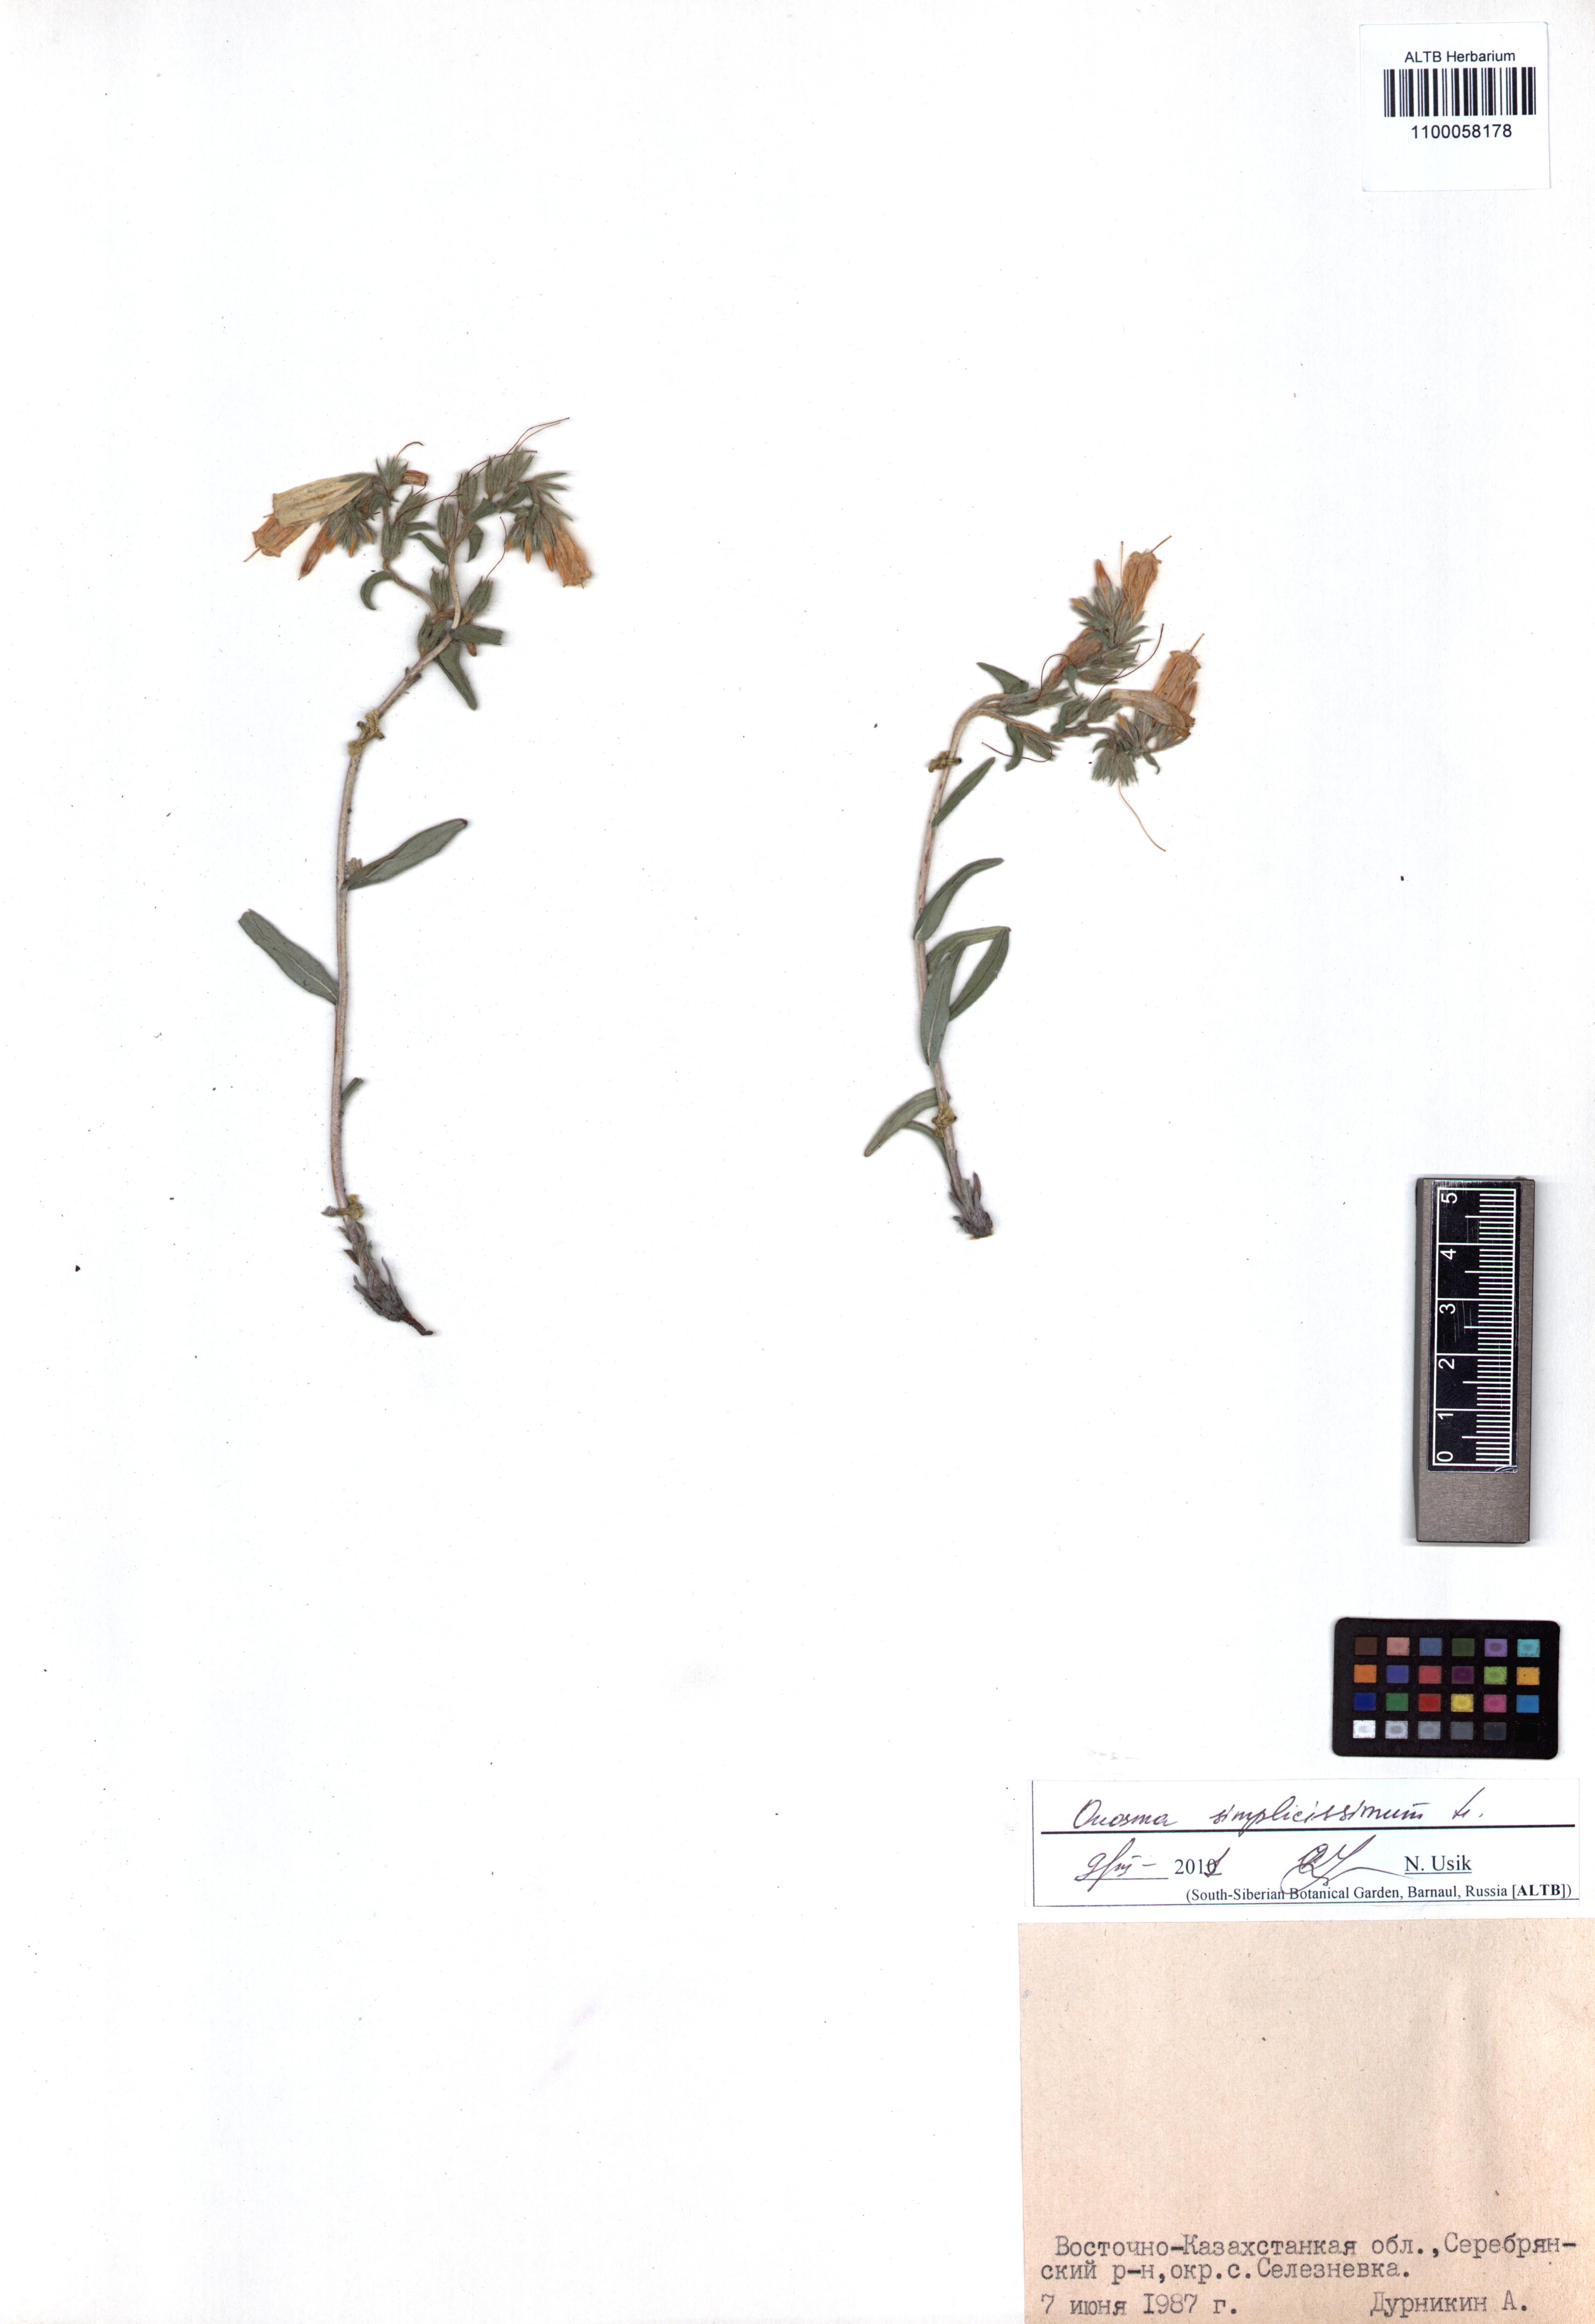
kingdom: Plantae
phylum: Tracheophyta
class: Magnoliopsida
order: Boraginales
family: Boraginaceae
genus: Onosma
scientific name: Onosma simplicissima
